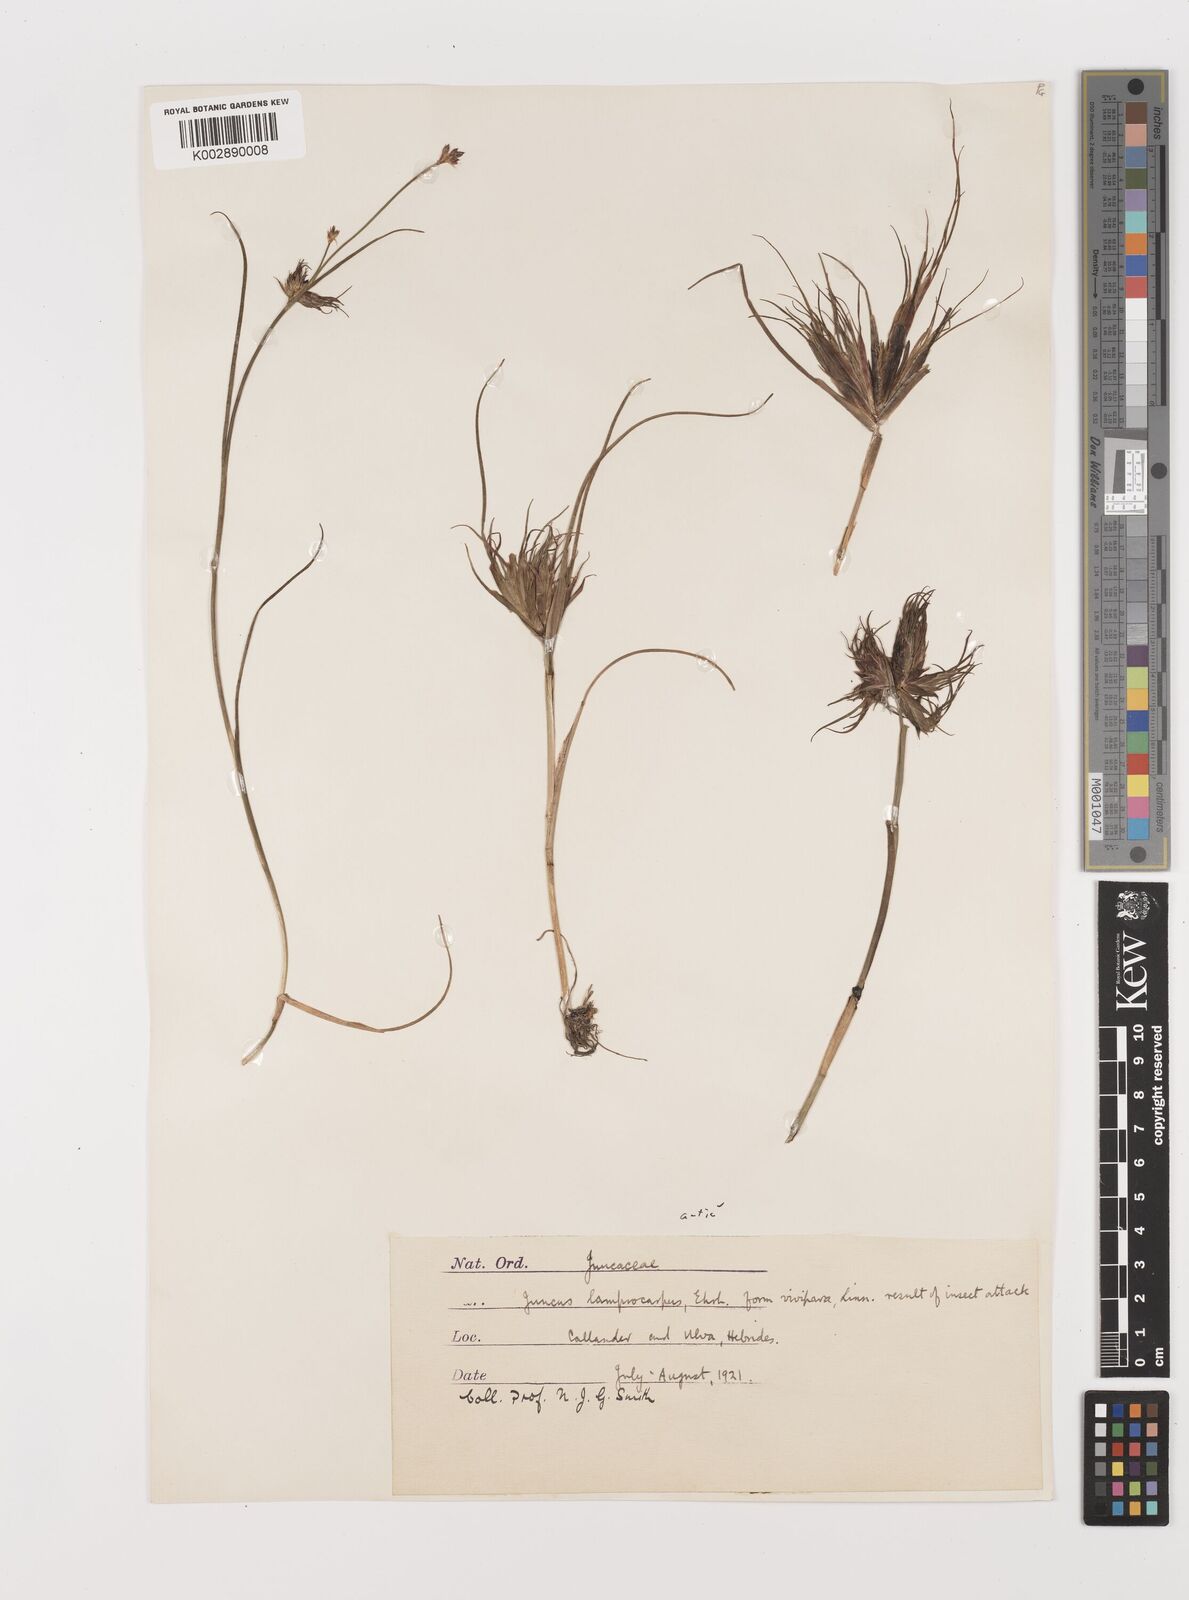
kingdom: Plantae
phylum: Tracheophyta
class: Liliopsida
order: Poales
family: Juncaceae
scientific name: Juncaceae
